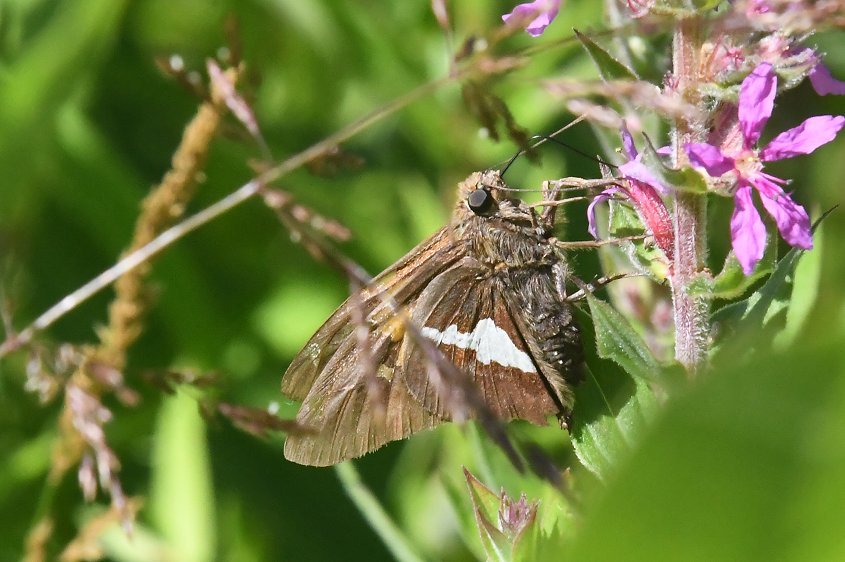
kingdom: Animalia
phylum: Arthropoda
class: Insecta
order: Lepidoptera
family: Hesperiidae
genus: Epargyreus
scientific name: Epargyreus clarus
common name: Silver-spotted Skipper
